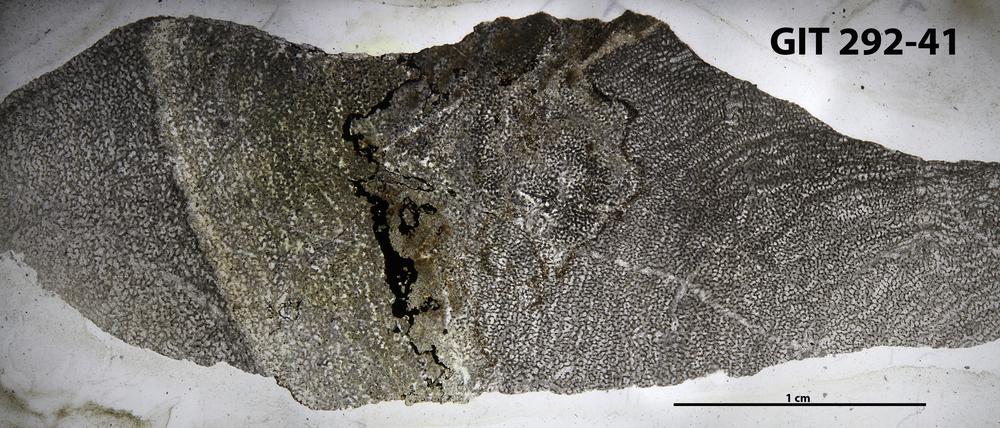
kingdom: Animalia
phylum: Porifera
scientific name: Porifera
